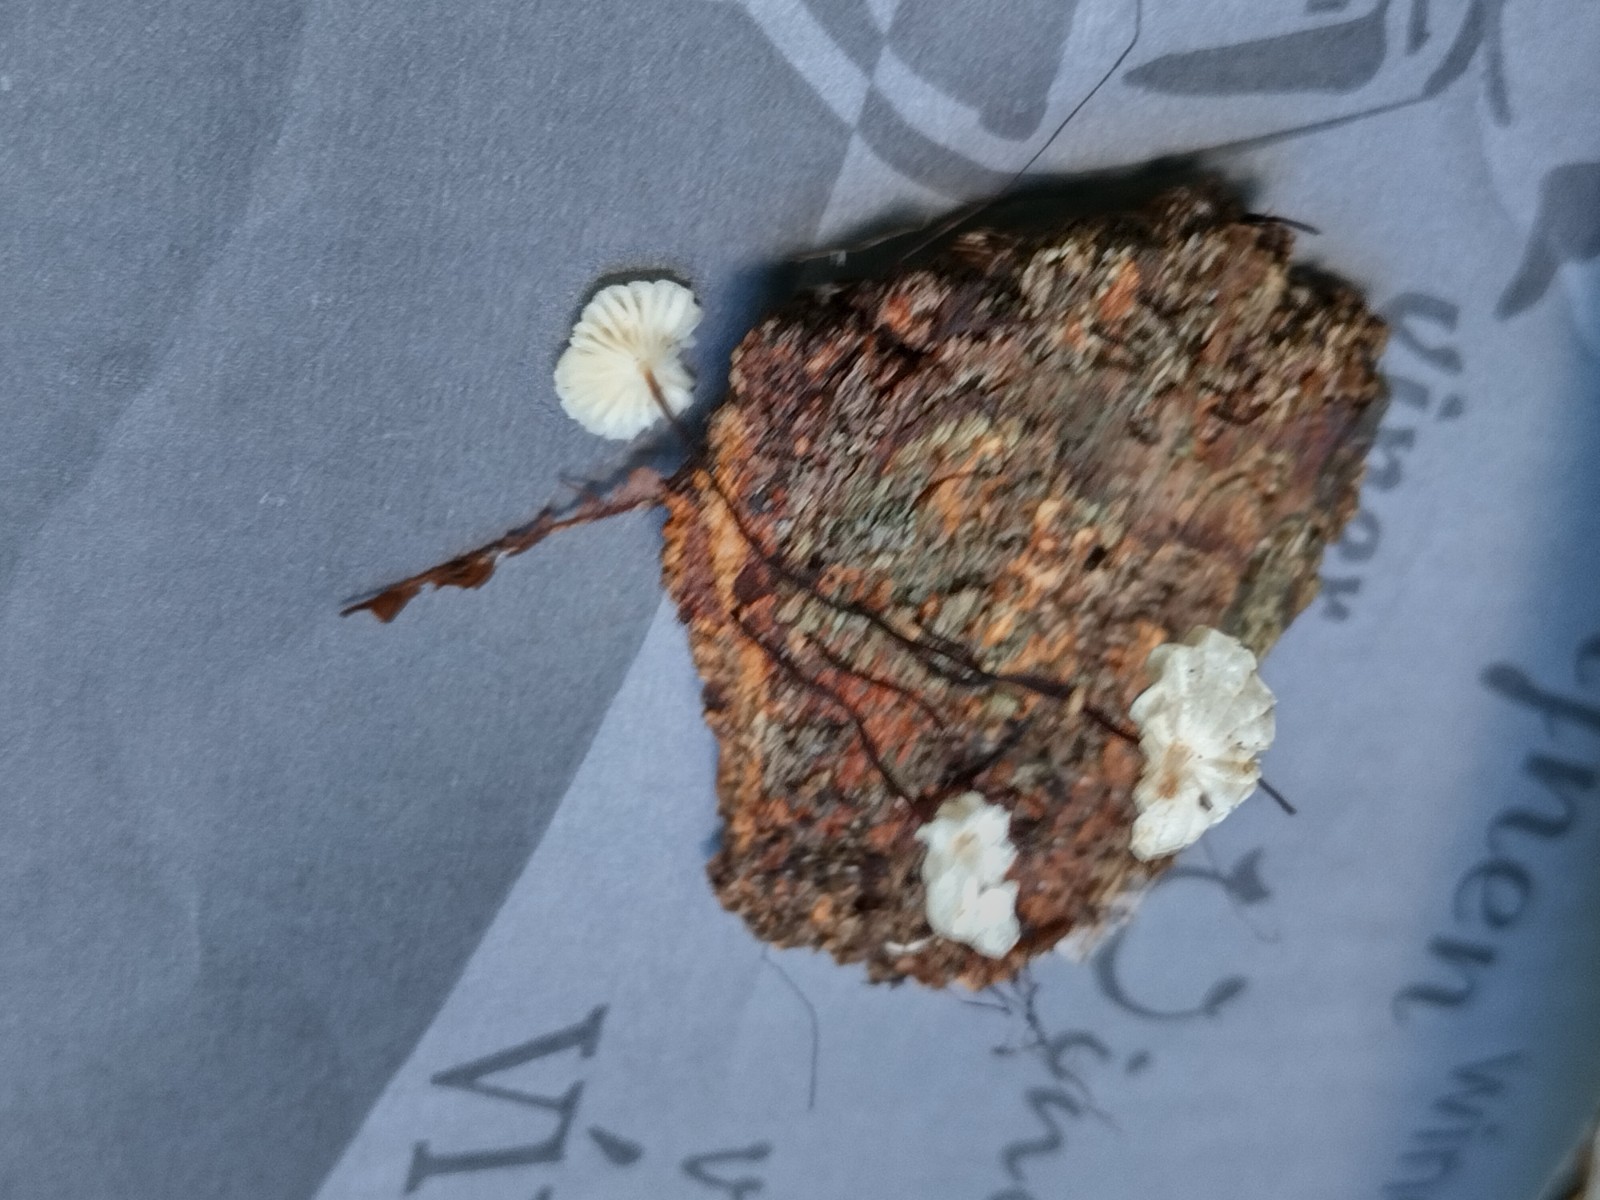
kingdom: Fungi
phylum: Basidiomycota
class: Agaricomycetes
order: Agaricales
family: Marasmiaceae
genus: Marasmius
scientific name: Marasmius rotula
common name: hjul-bruskhat
